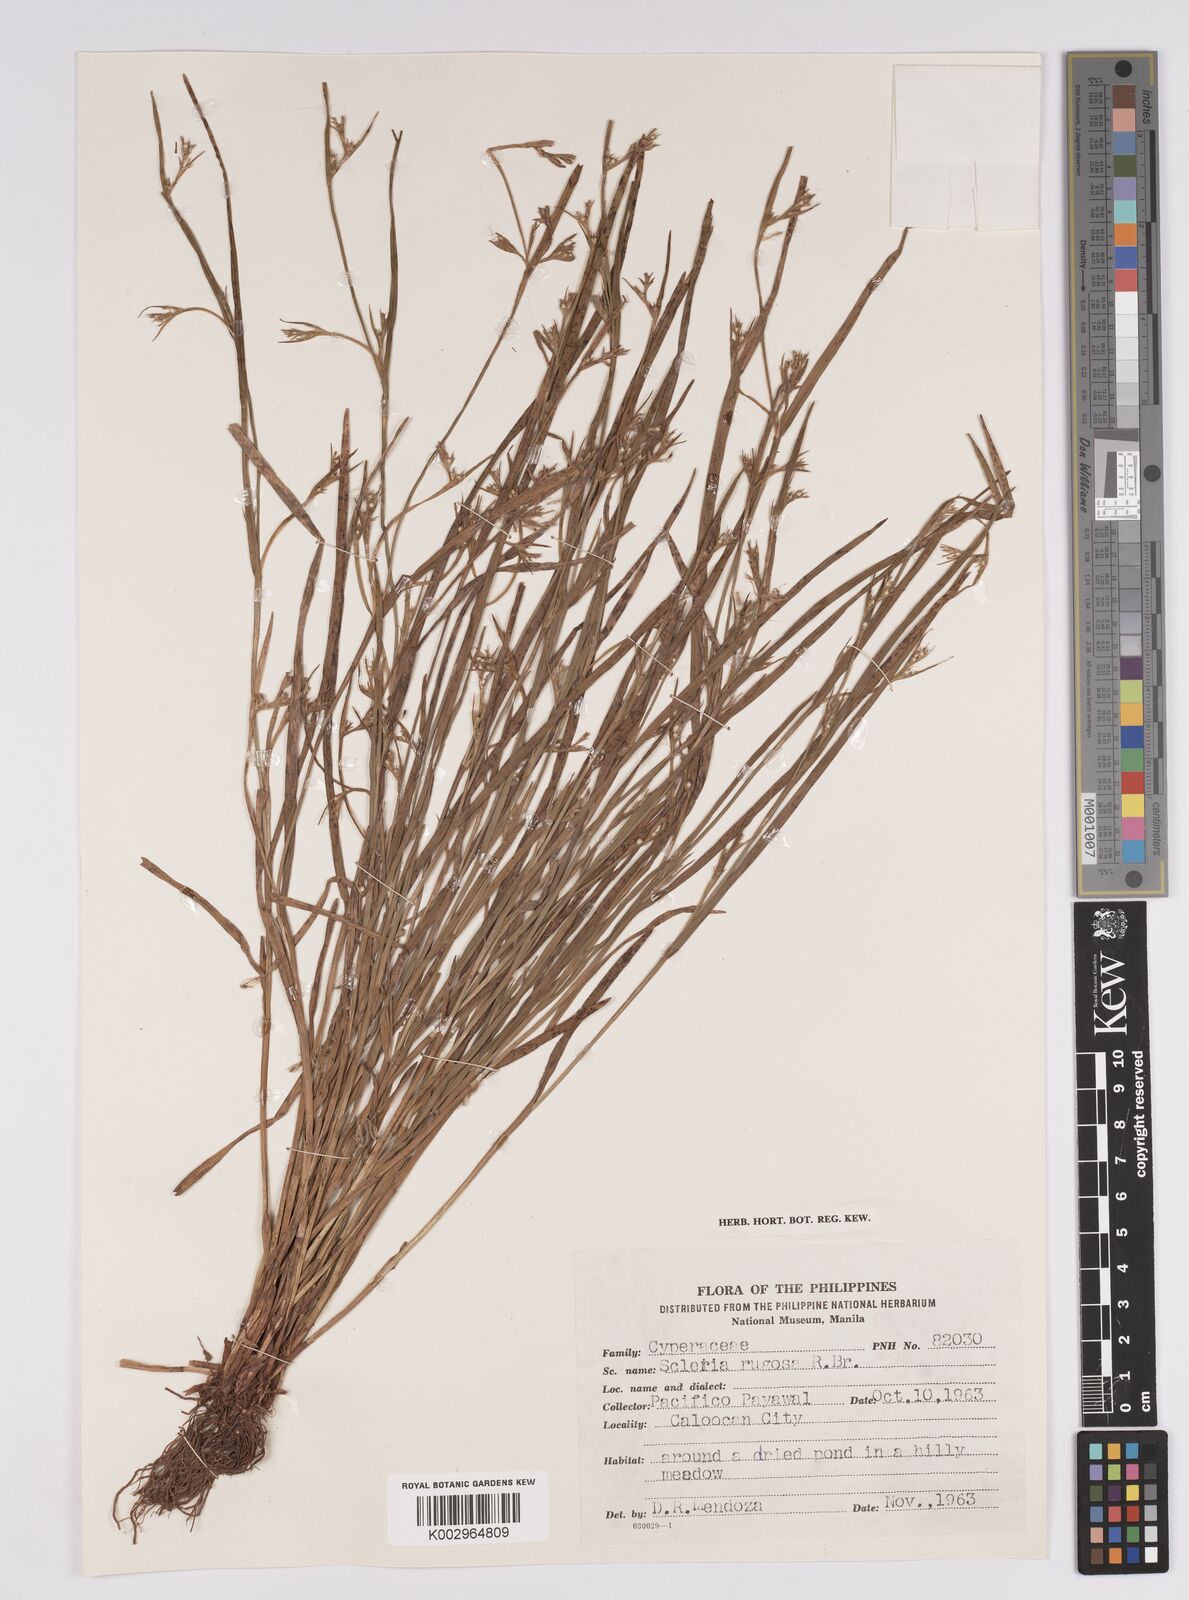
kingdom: Plantae
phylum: Tracheophyta
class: Liliopsida
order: Poales
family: Cyperaceae
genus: Scleria
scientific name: Scleria rugosa
